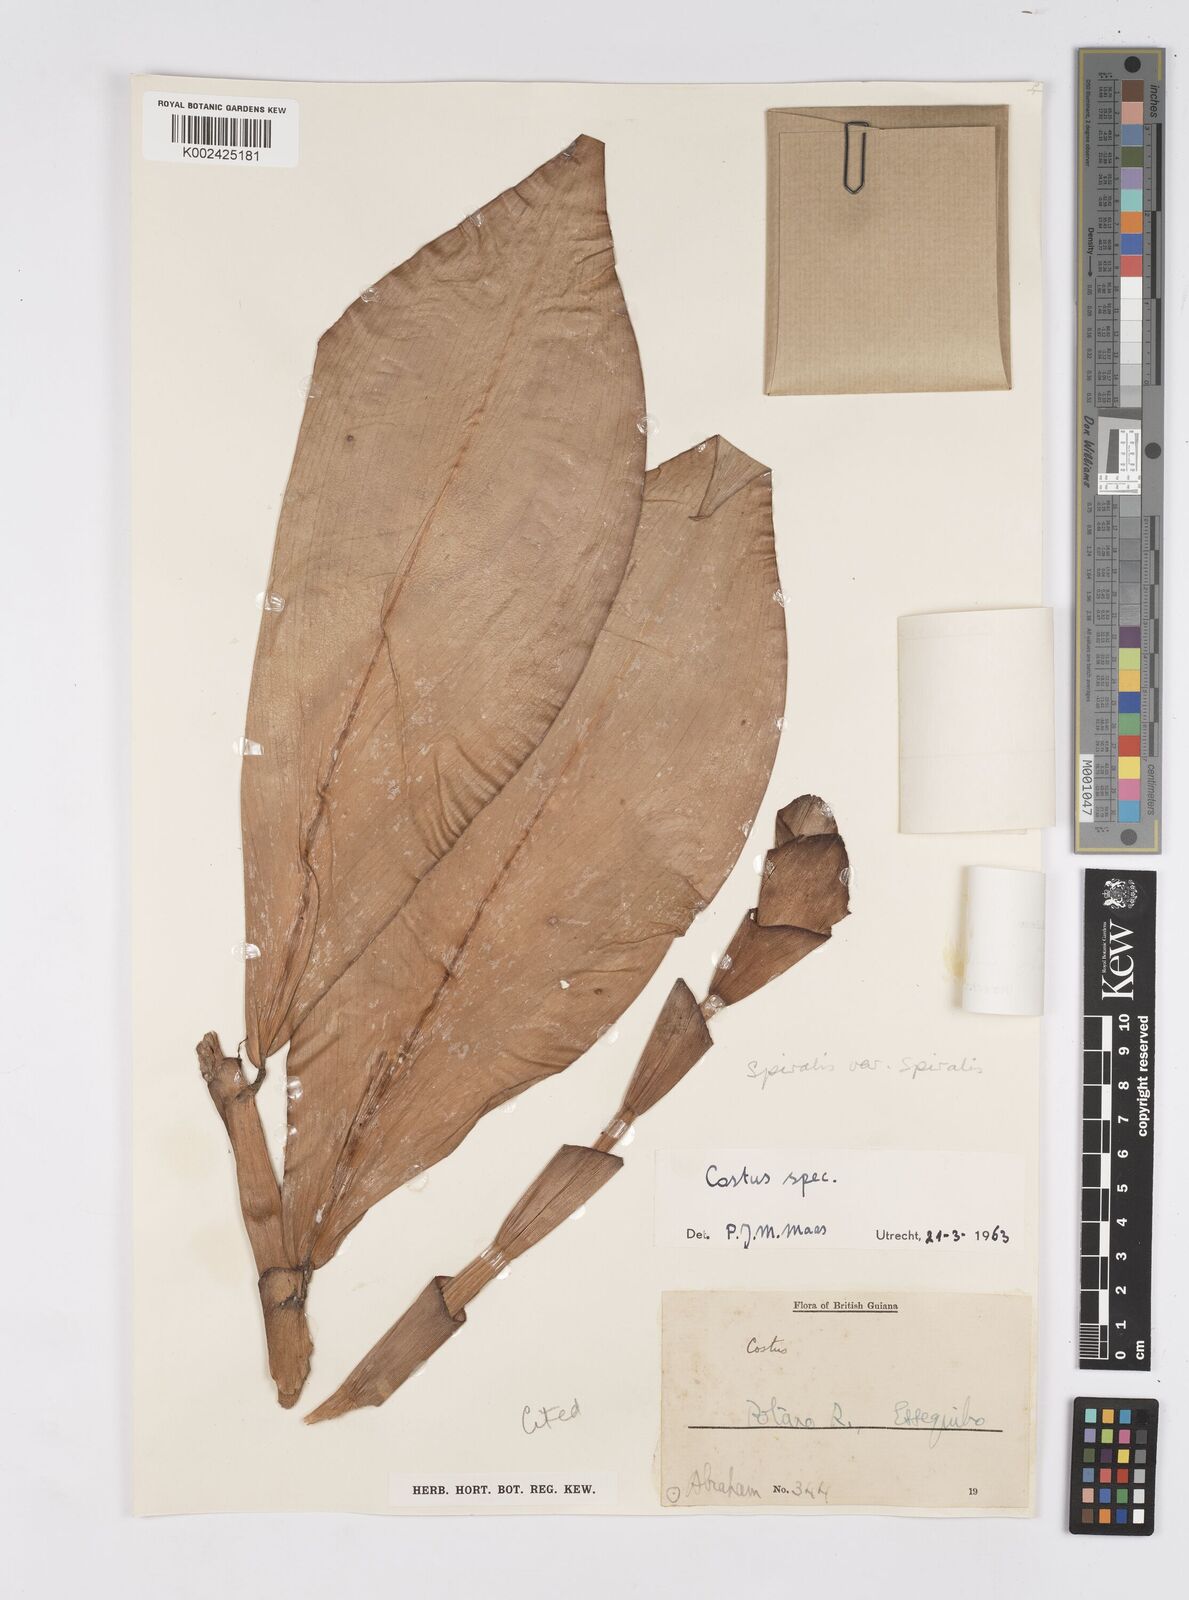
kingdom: Plantae
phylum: Tracheophyta
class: Liliopsida
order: Zingiberales
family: Costaceae
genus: Costus
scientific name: Costus spiralis
